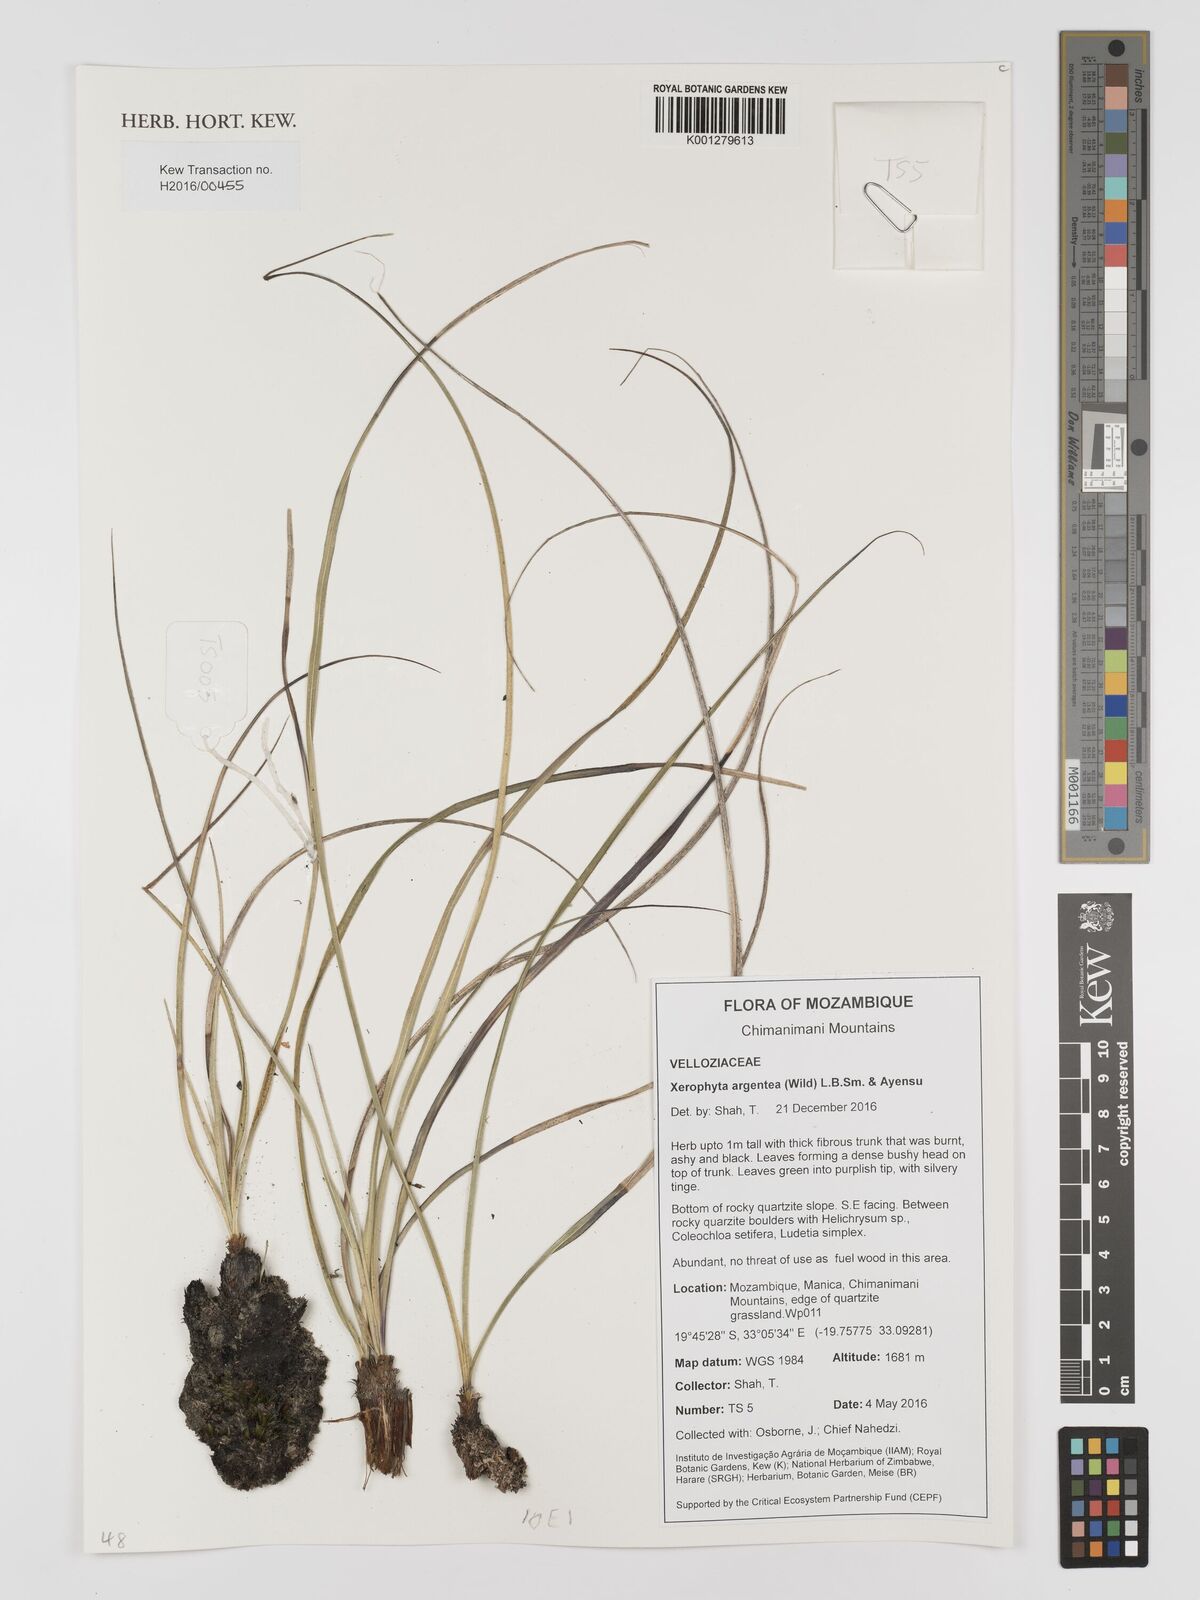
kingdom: Plantae
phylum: Tracheophyta
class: Liliopsida
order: Pandanales
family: Velloziaceae
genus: Xerophyta
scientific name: Xerophyta argentea
